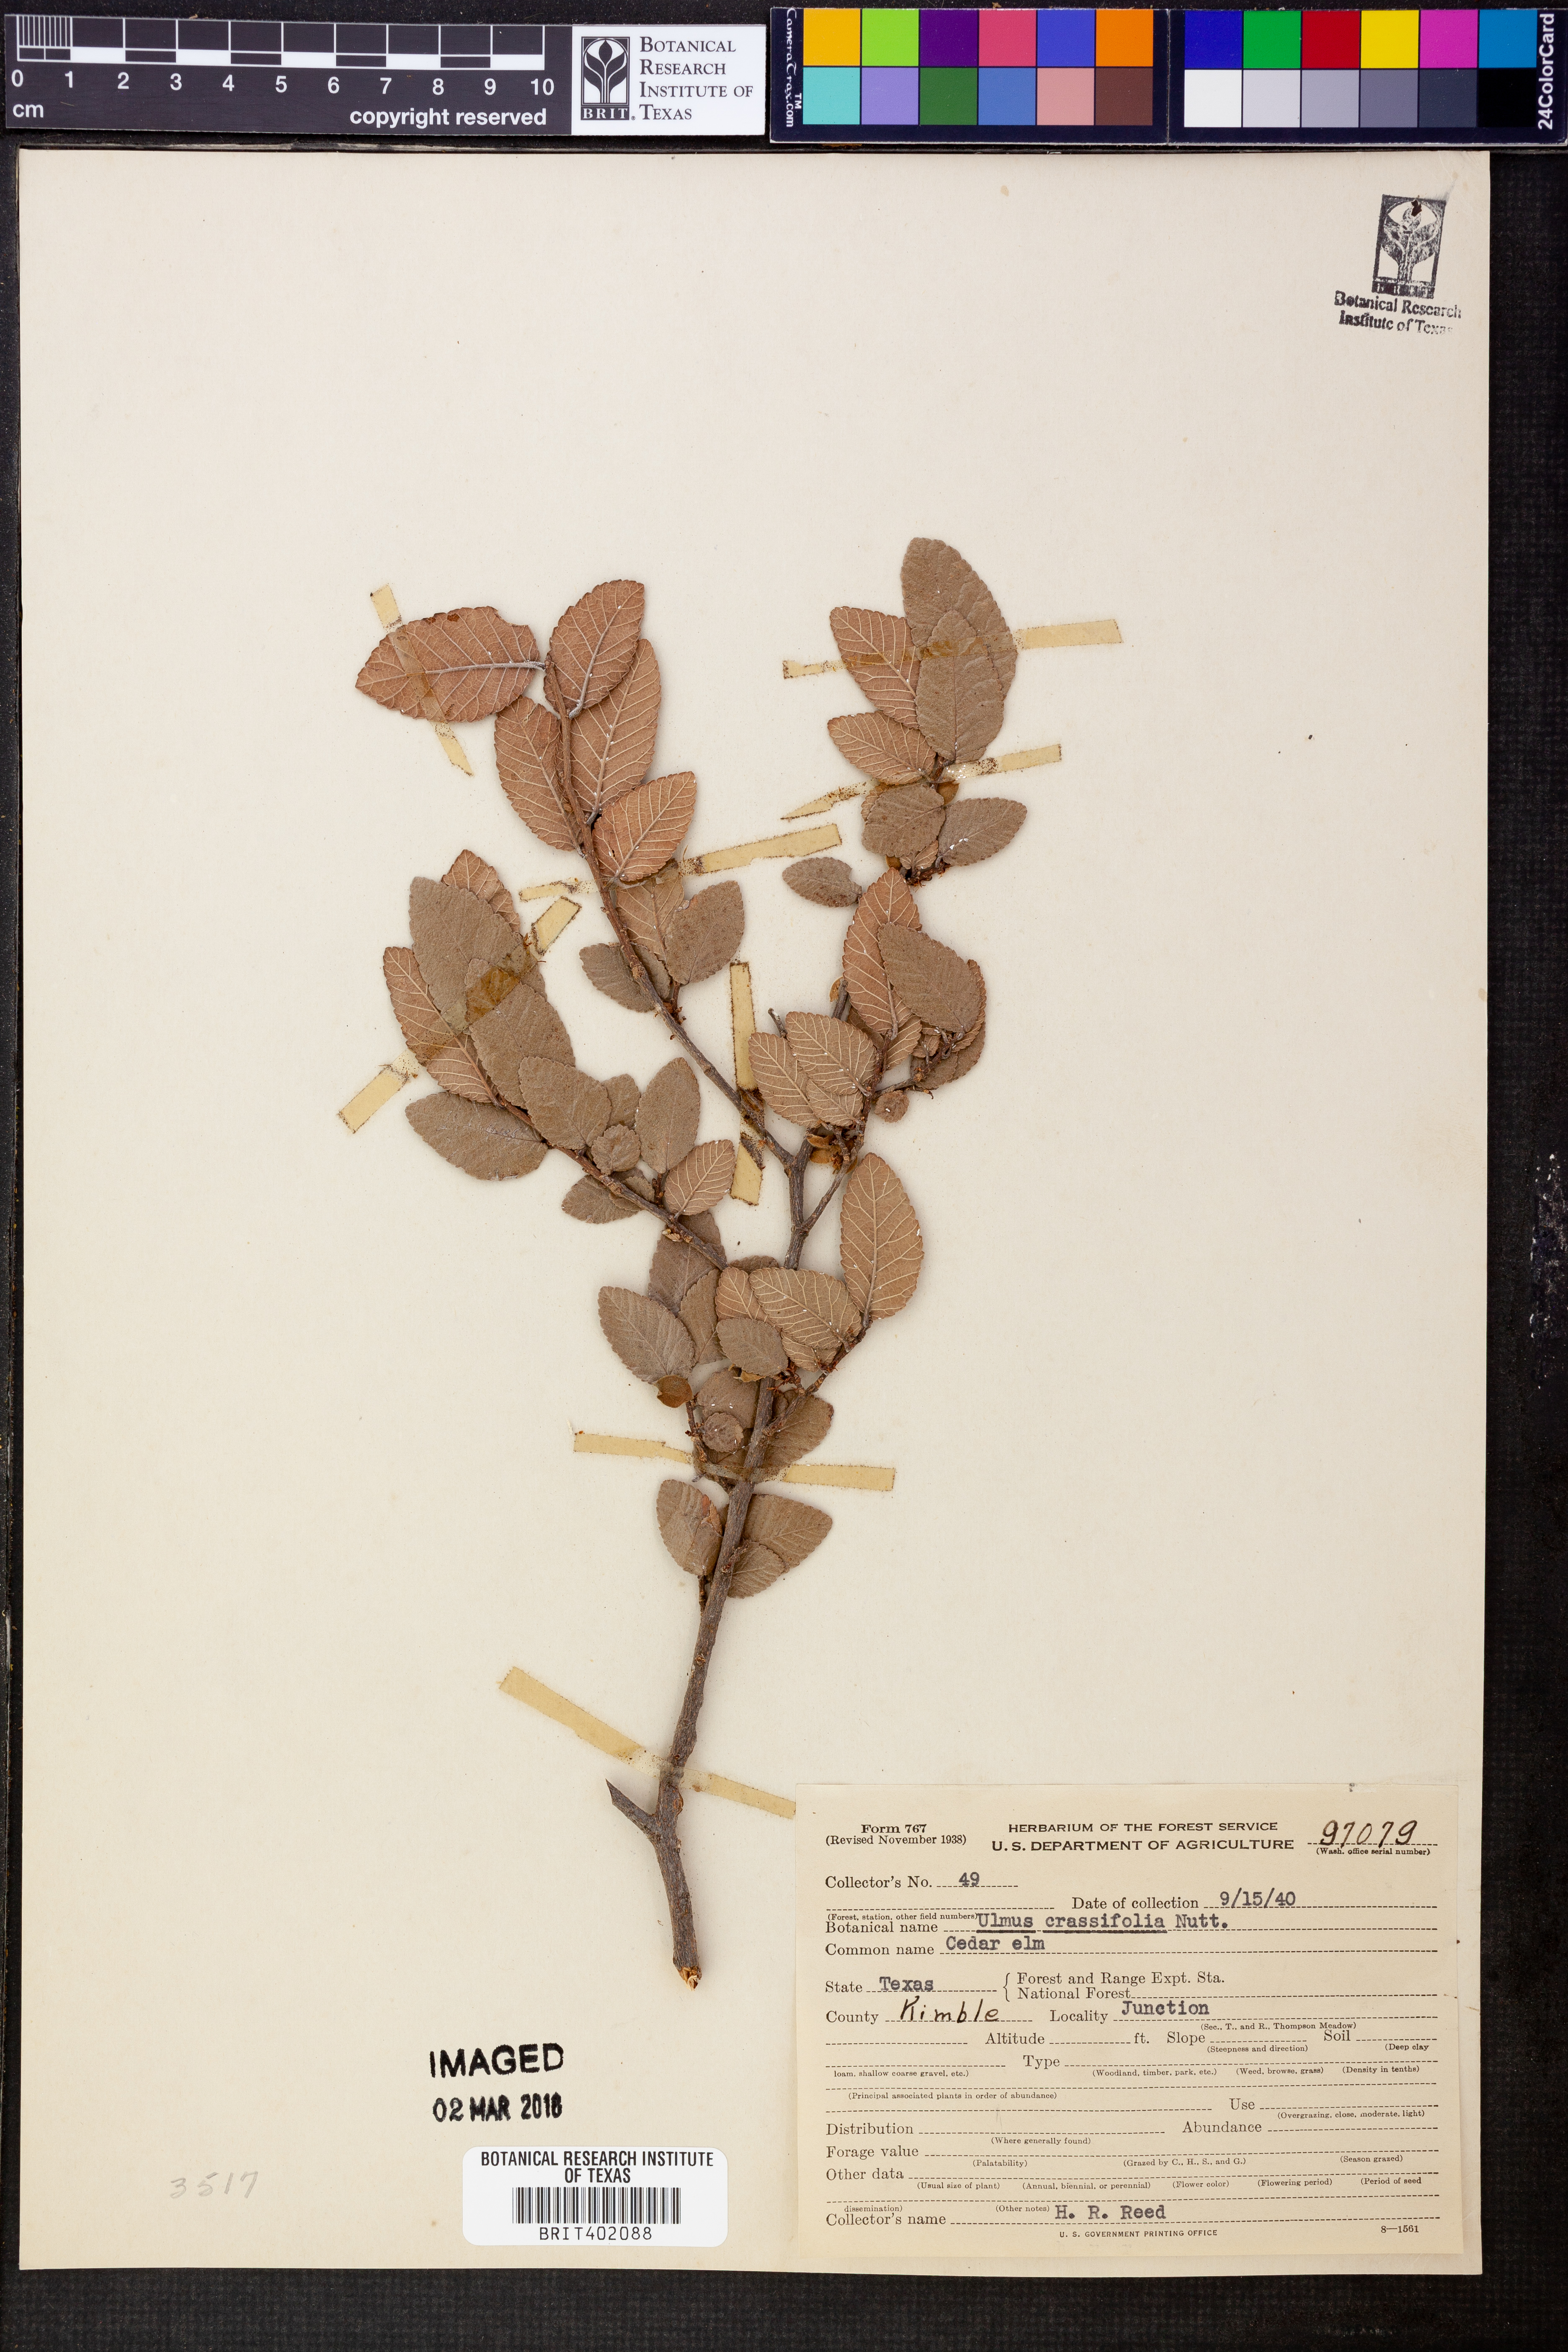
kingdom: Plantae
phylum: Tracheophyta
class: Magnoliopsida
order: Rosales
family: Ulmaceae
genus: Ulmus
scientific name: Ulmus crassifolia
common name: Basket elm
